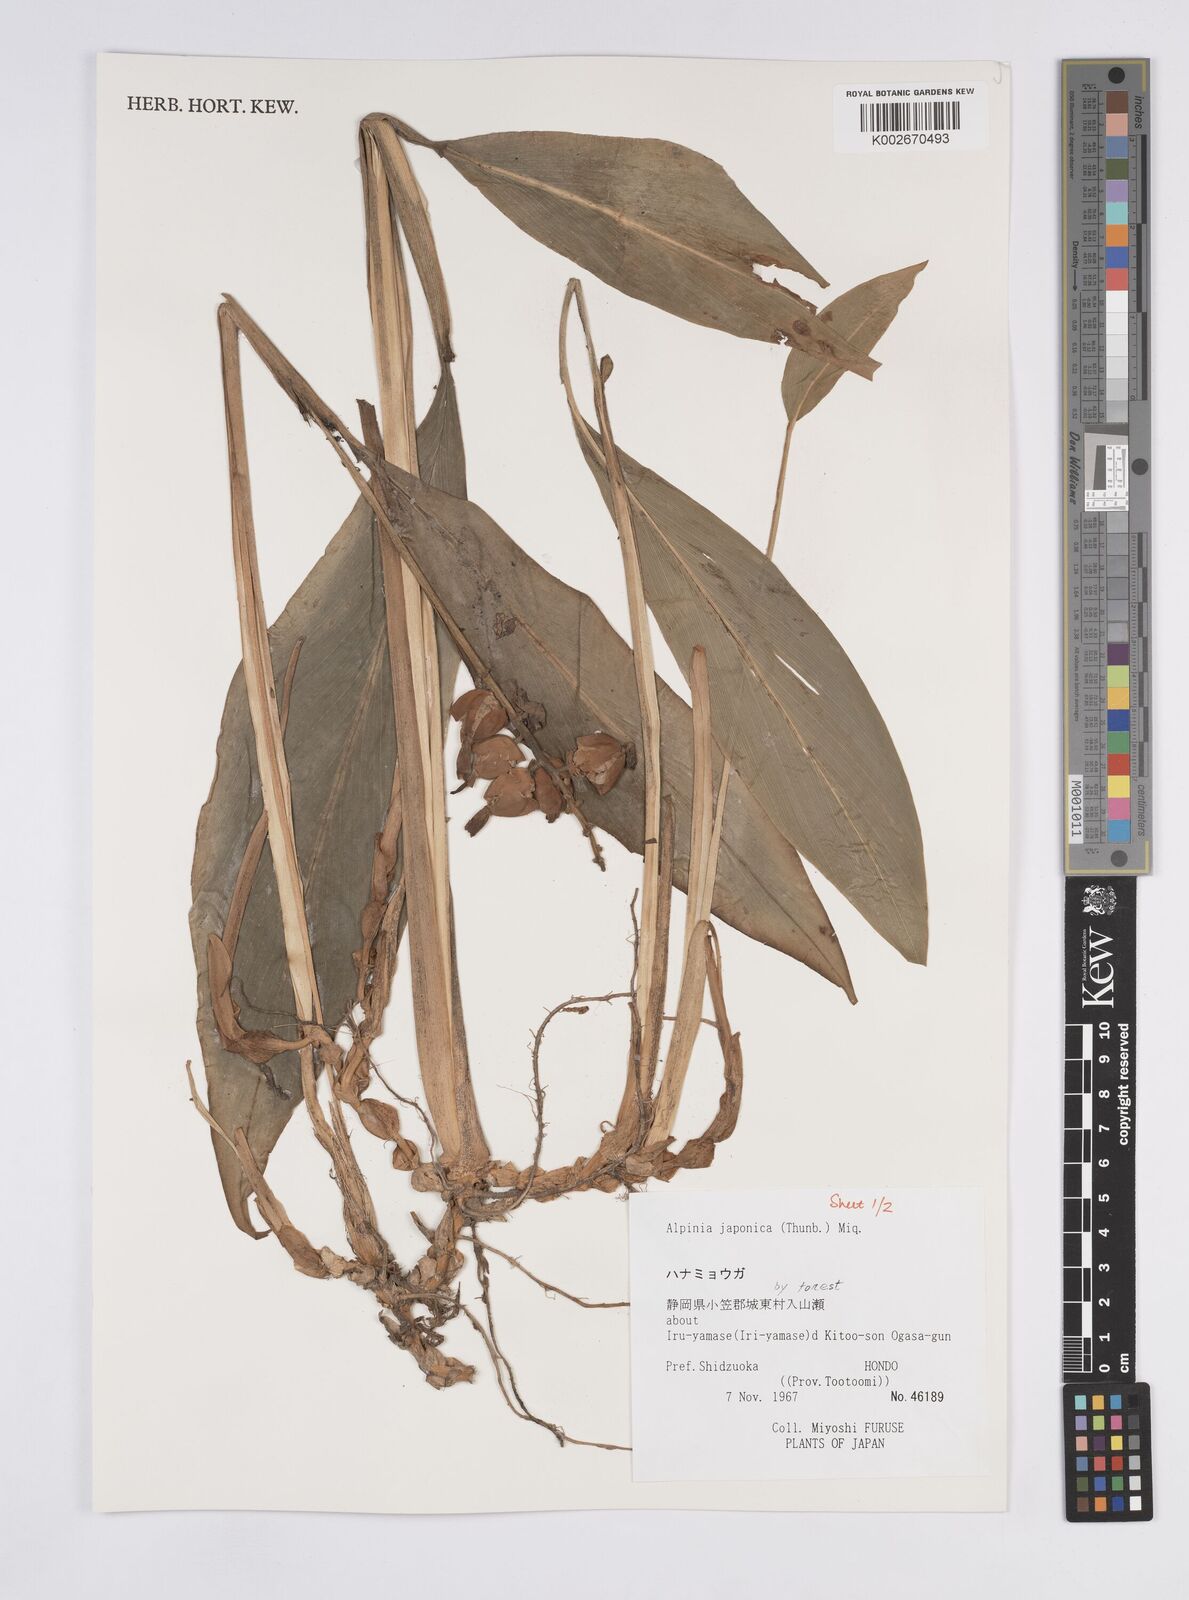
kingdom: Plantae
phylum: Tracheophyta
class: Liliopsida
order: Zingiberales
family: Zingiberaceae
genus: Alpinia
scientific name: Alpinia japonica
